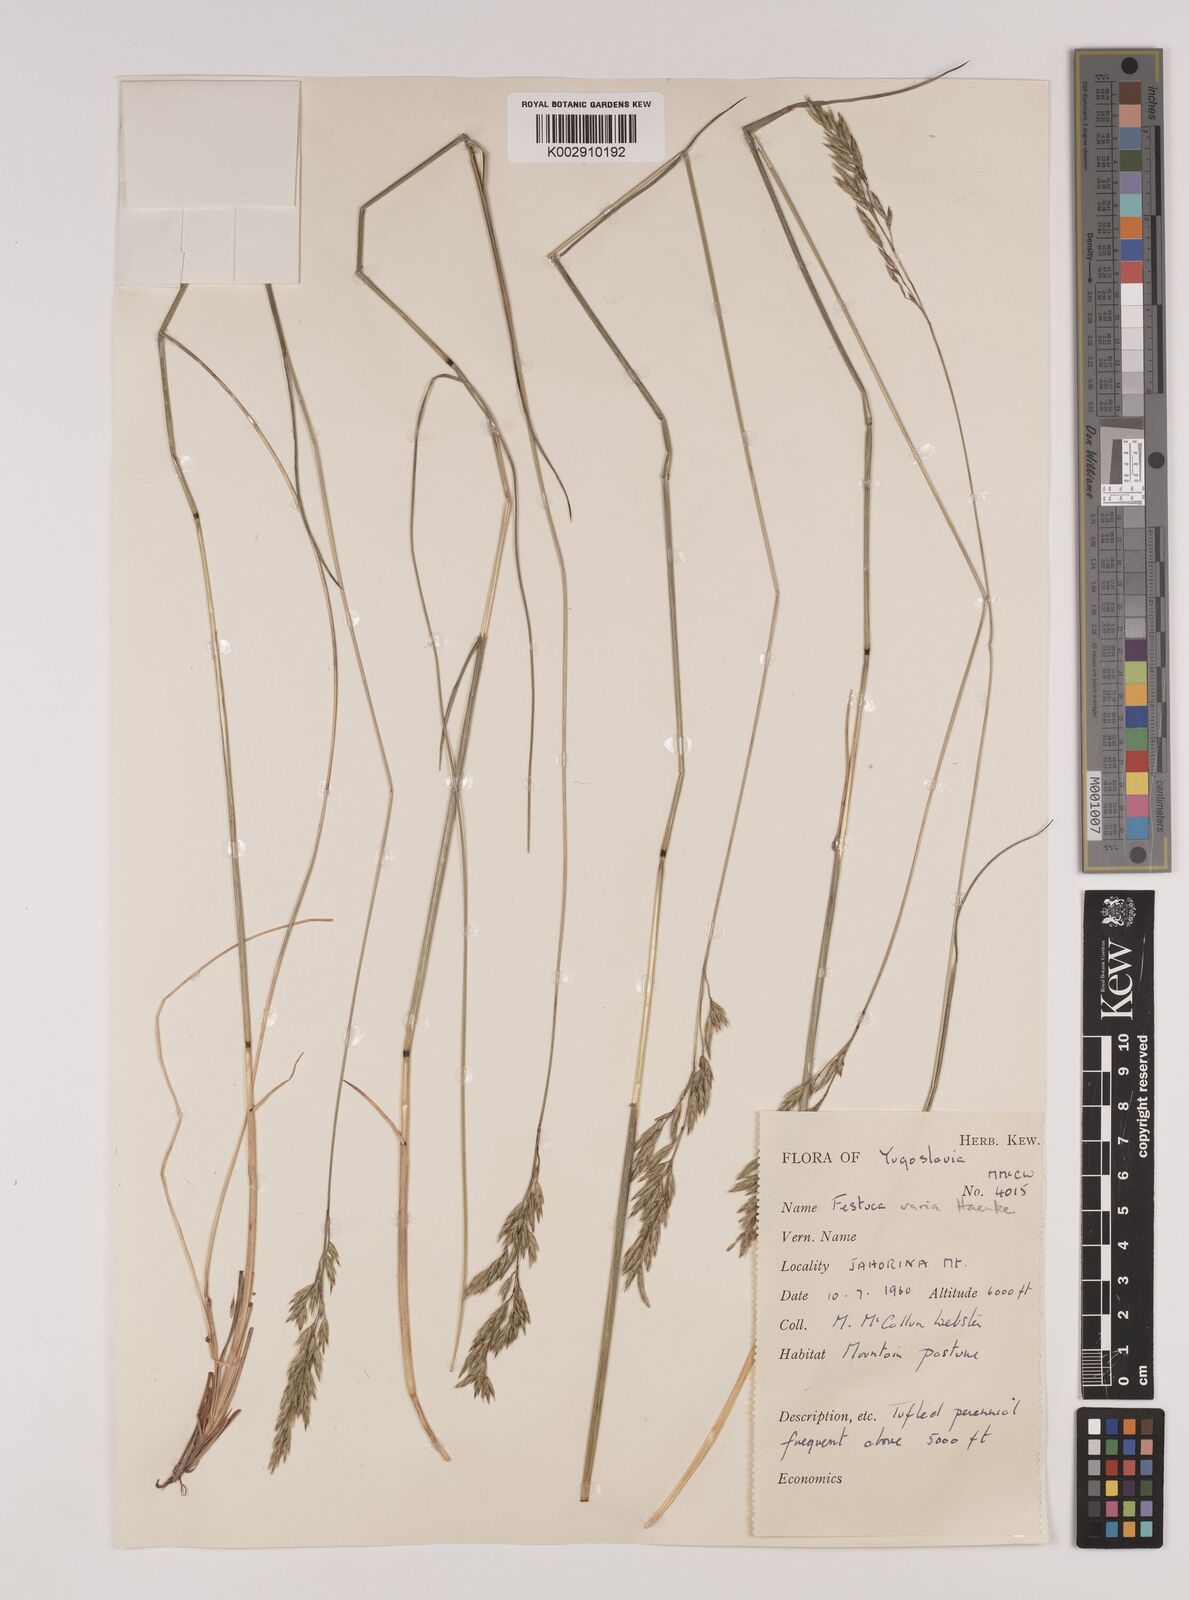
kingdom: Plantae
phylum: Tracheophyta
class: Liliopsida
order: Poales
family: Poaceae
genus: Festuca
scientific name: Festuca varia
